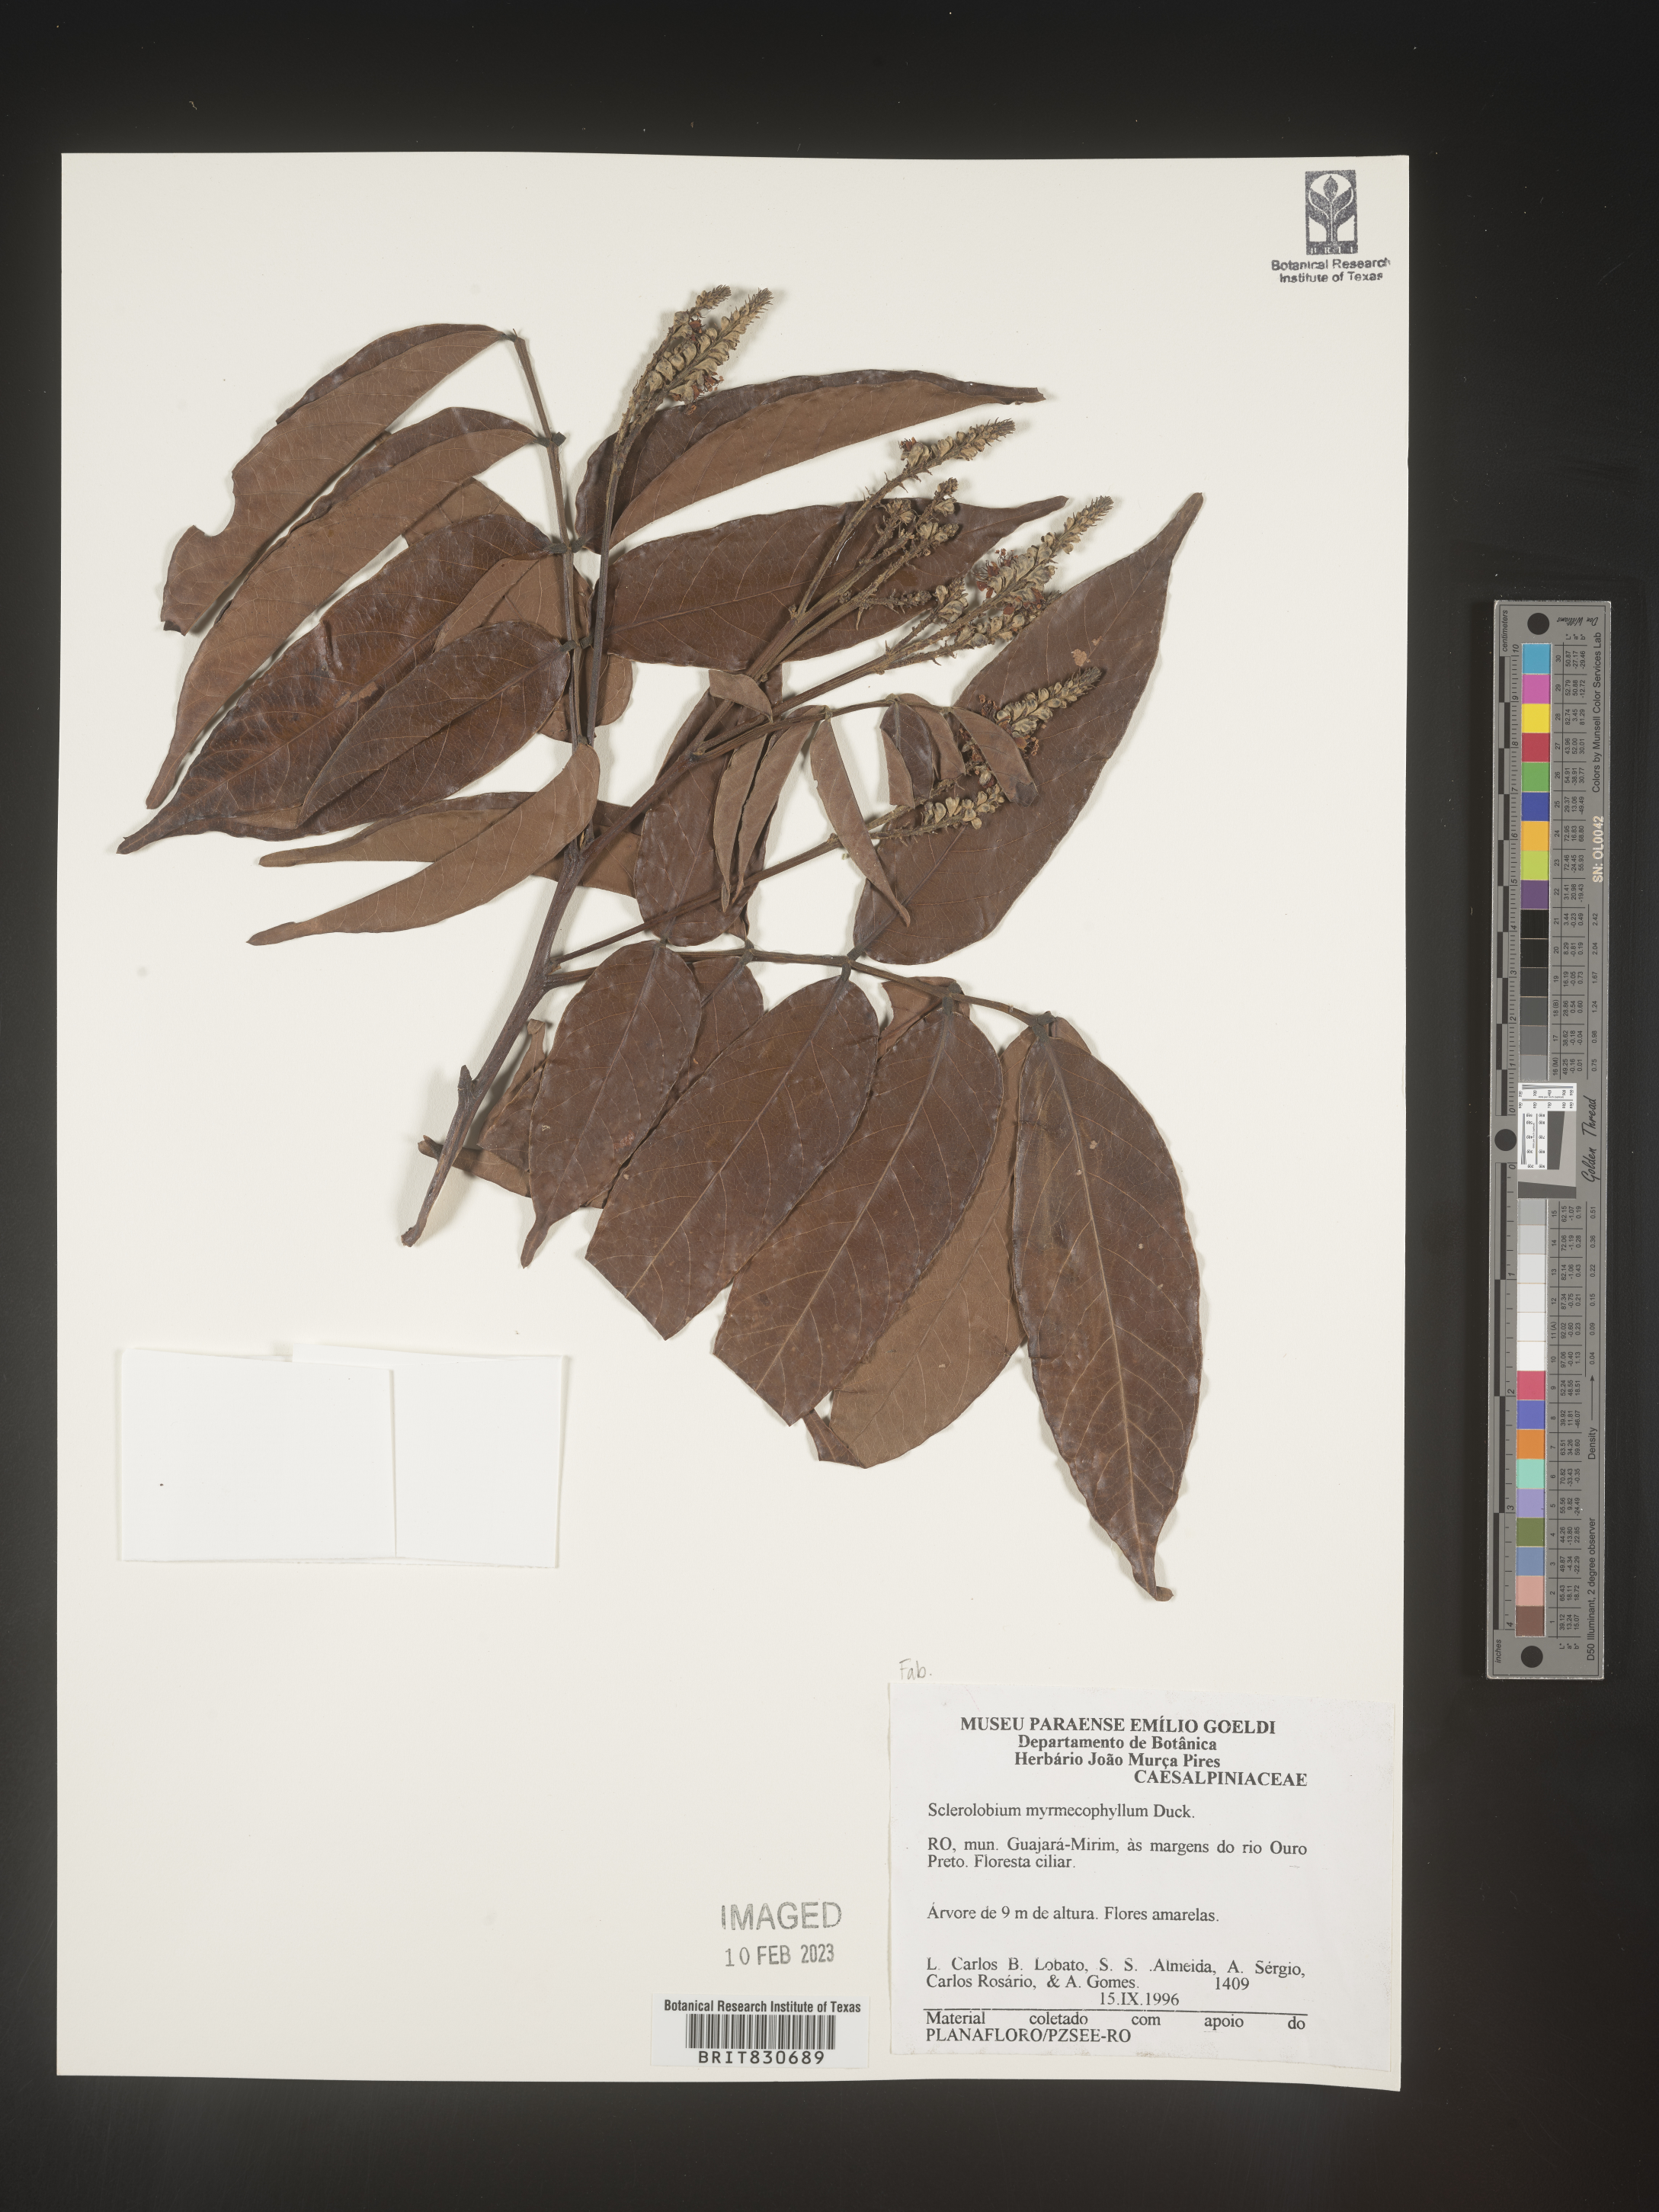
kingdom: Plantae
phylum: Tracheophyta
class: Magnoliopsida
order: Fabales
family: Fabaceae
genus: Tachigali
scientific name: Tachigali
